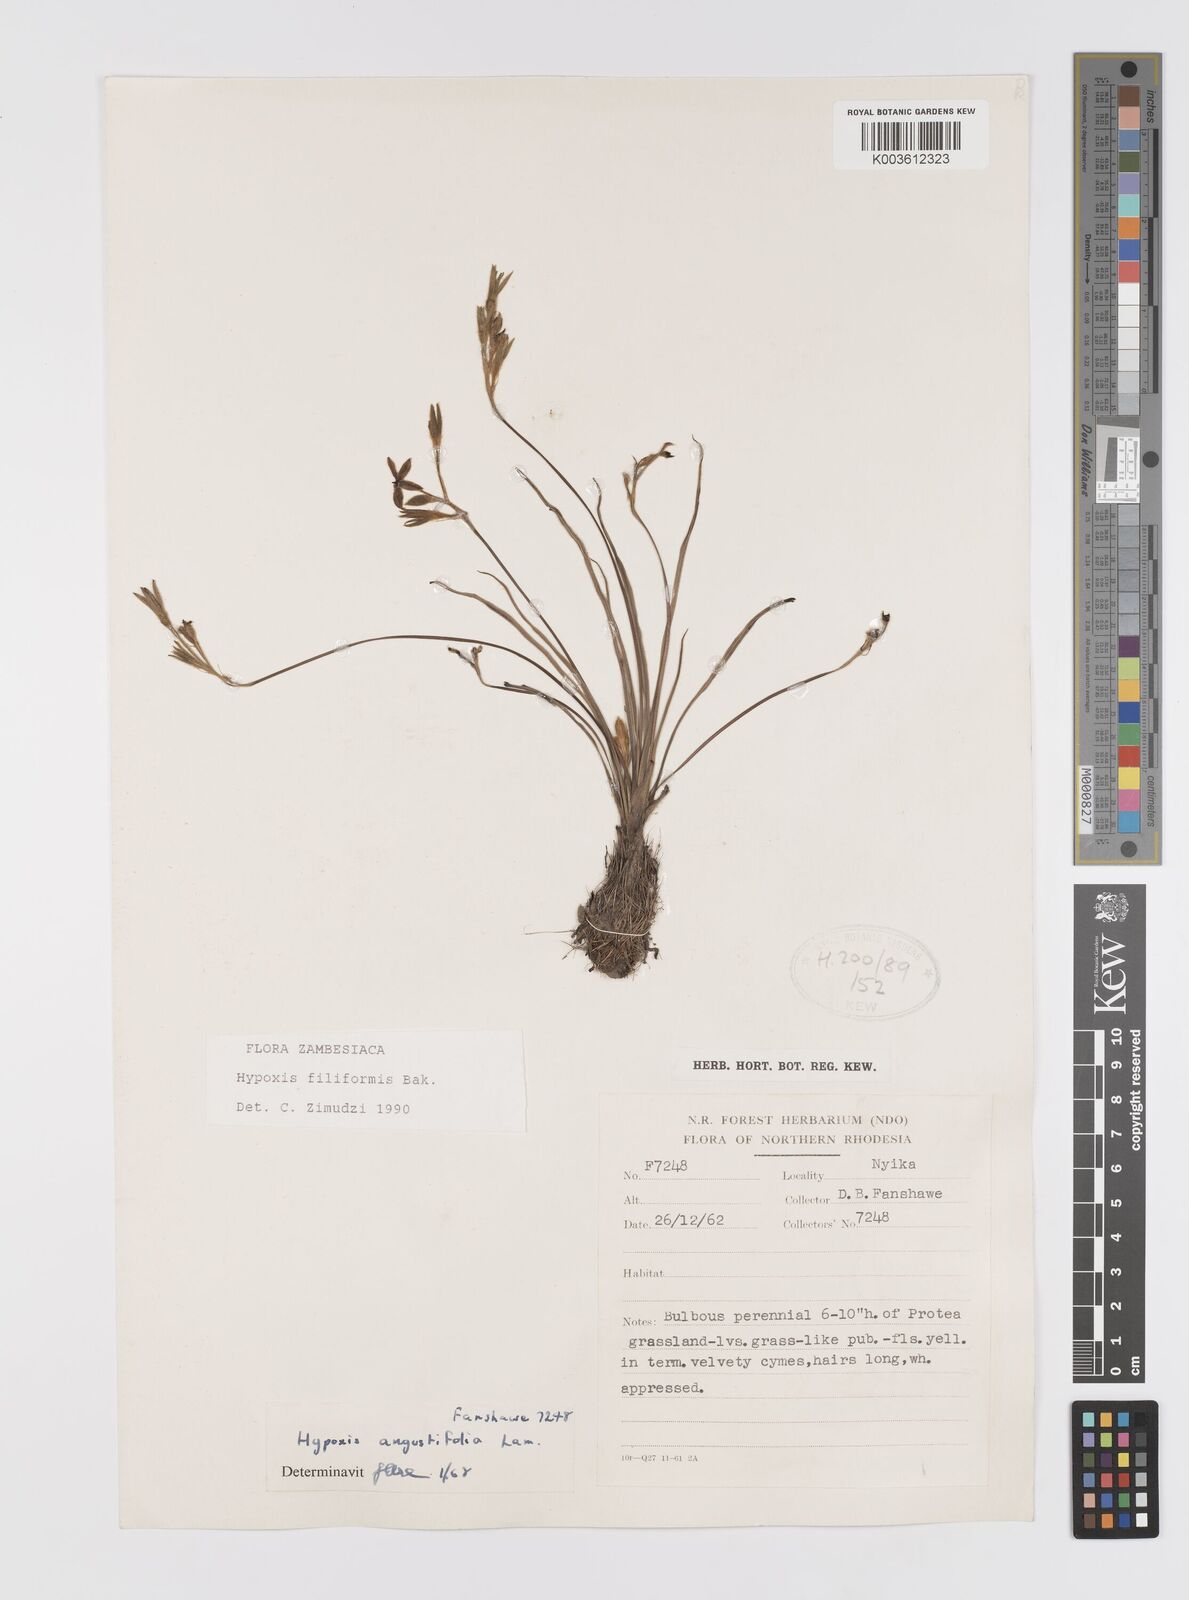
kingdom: Plantae
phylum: Tracheophyta
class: Liliopsida
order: Asparagales
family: Hypoxidaceae
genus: Hypoxis
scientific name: Hypoxis filiformis
